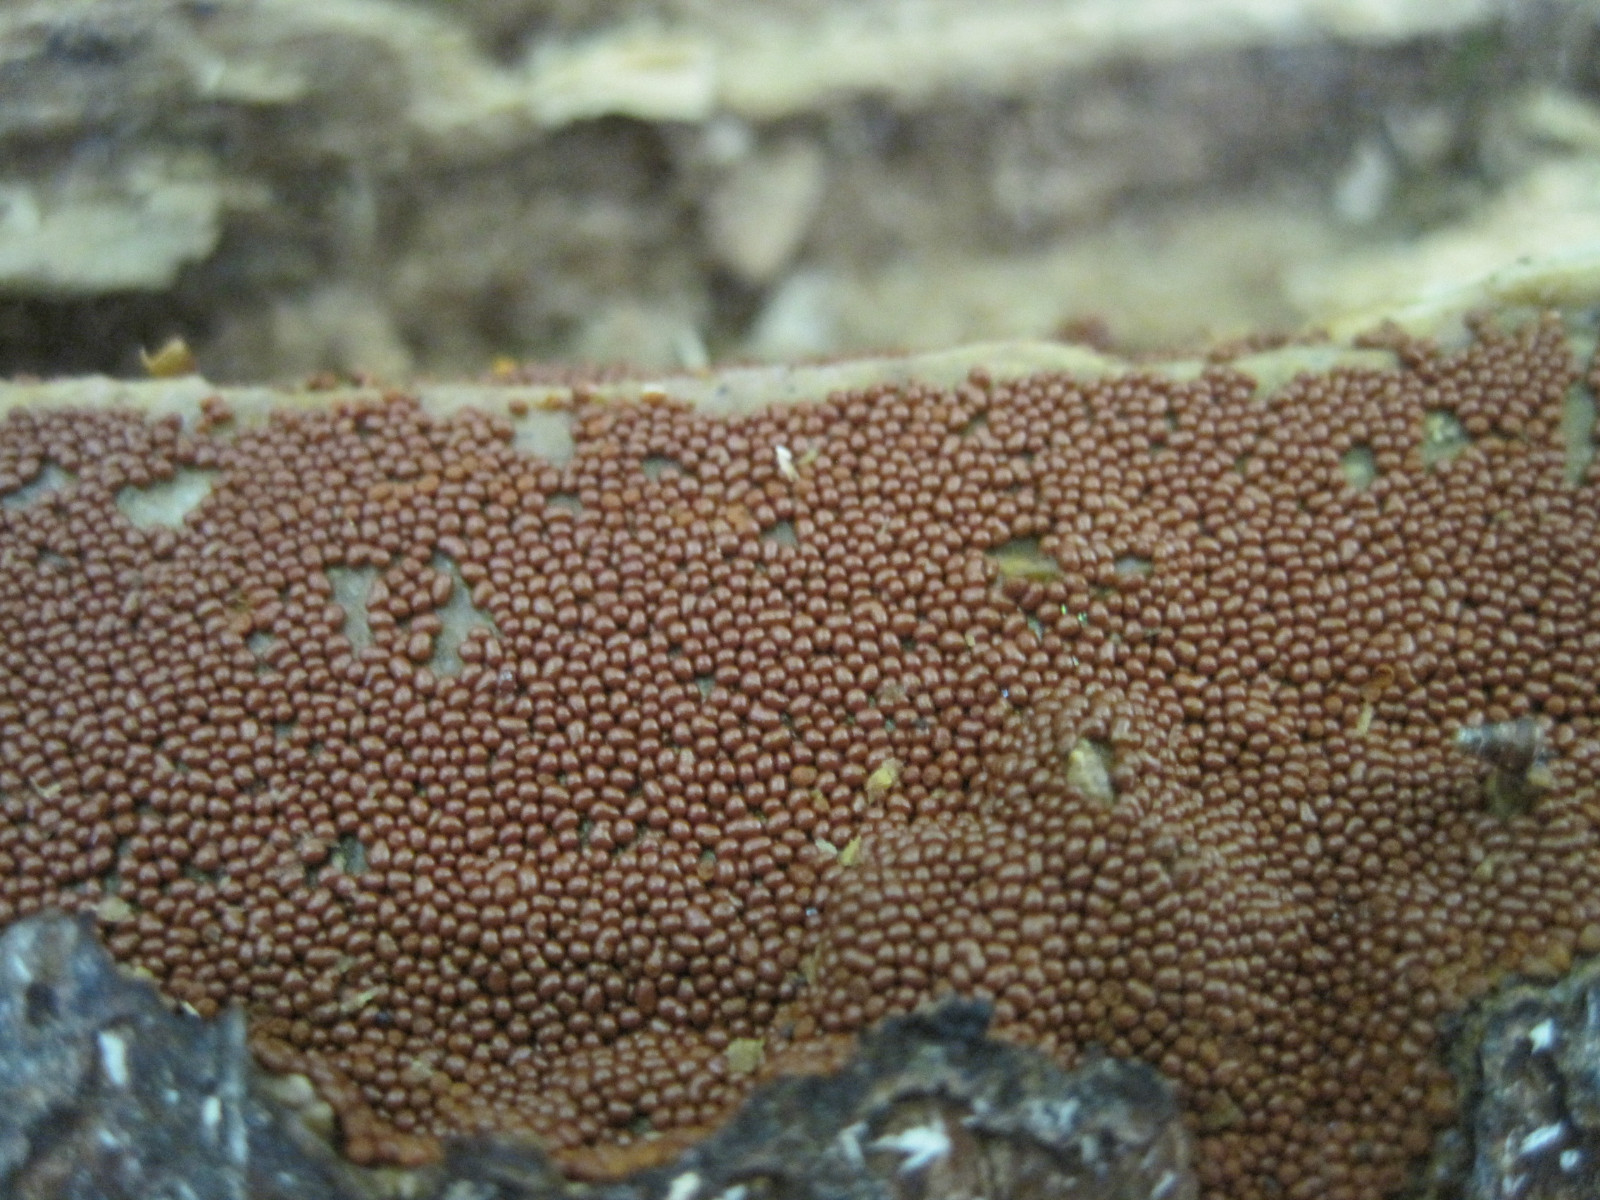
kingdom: Protozoa
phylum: Mycetozoa
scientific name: Mycetozoa
